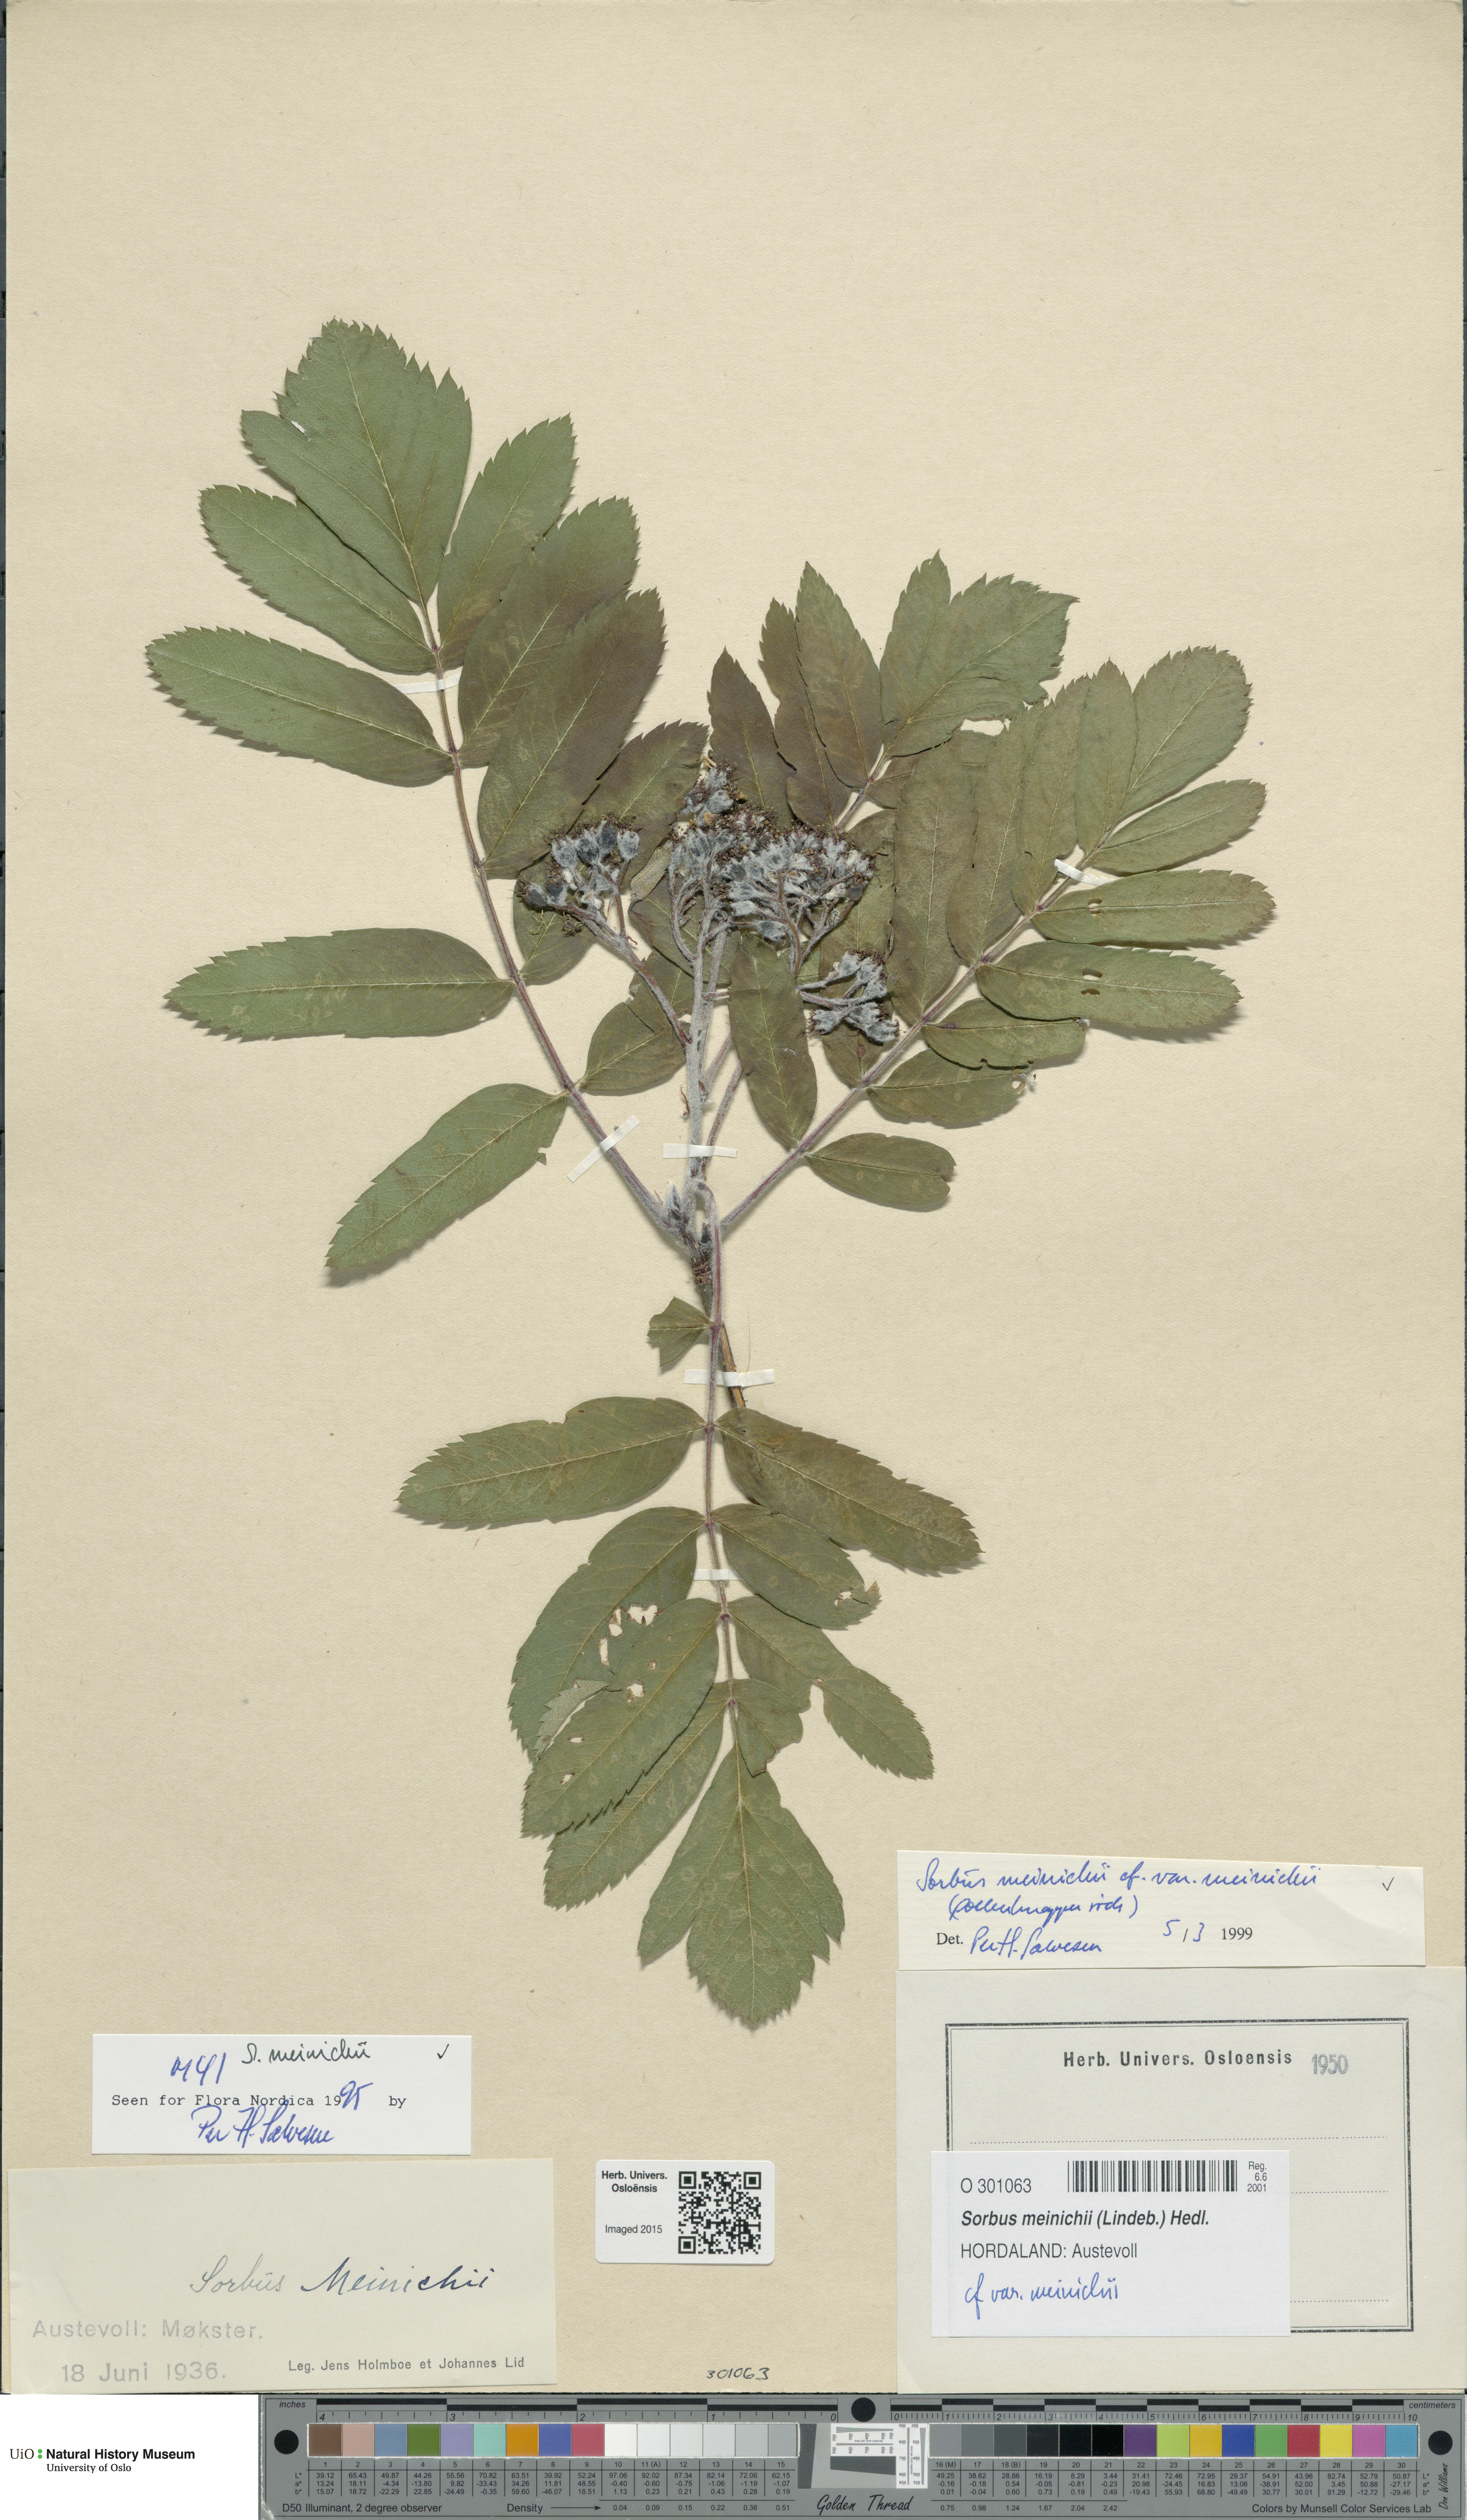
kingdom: Plantae
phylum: Tracheophyta
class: Magnoliopsida
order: Rosales
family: Rosaceae
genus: Hedlundia
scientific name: Hedlundia meinichii
